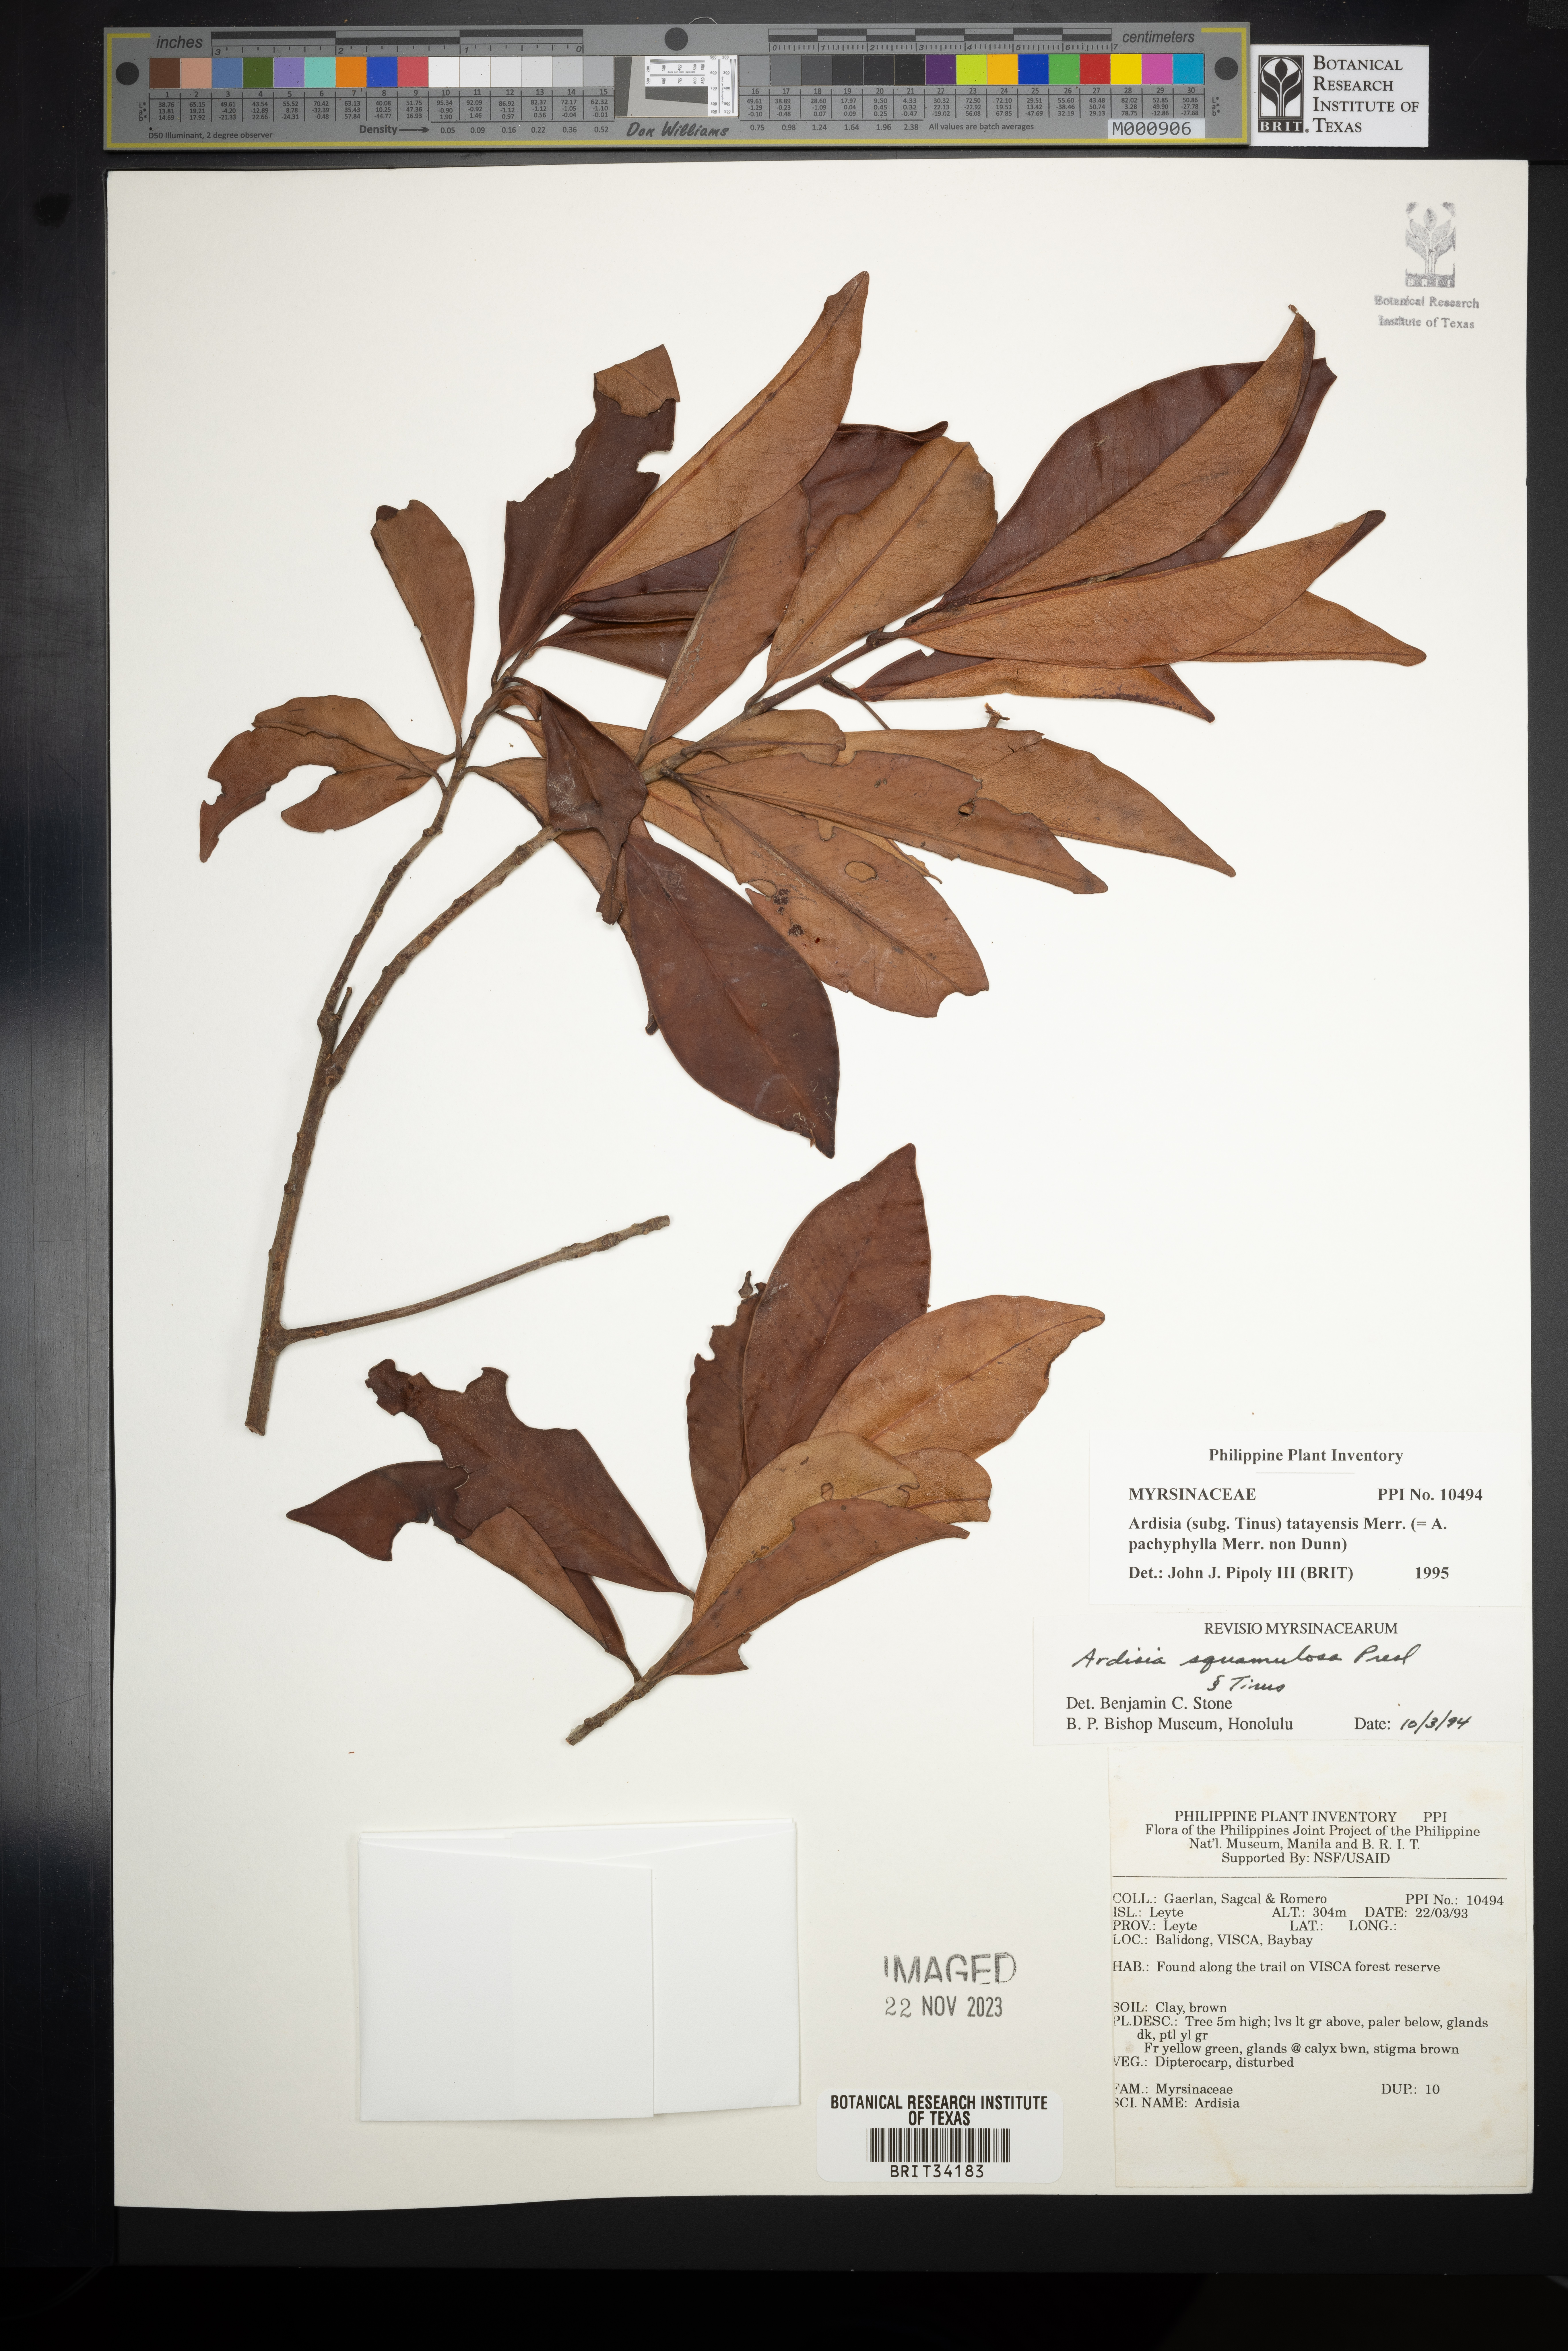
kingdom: Plantae
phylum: Tracheophyta
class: Magnoliopsida
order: Ericales
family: Primulaceae
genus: Ardisia
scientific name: Ardisia taytayensis
